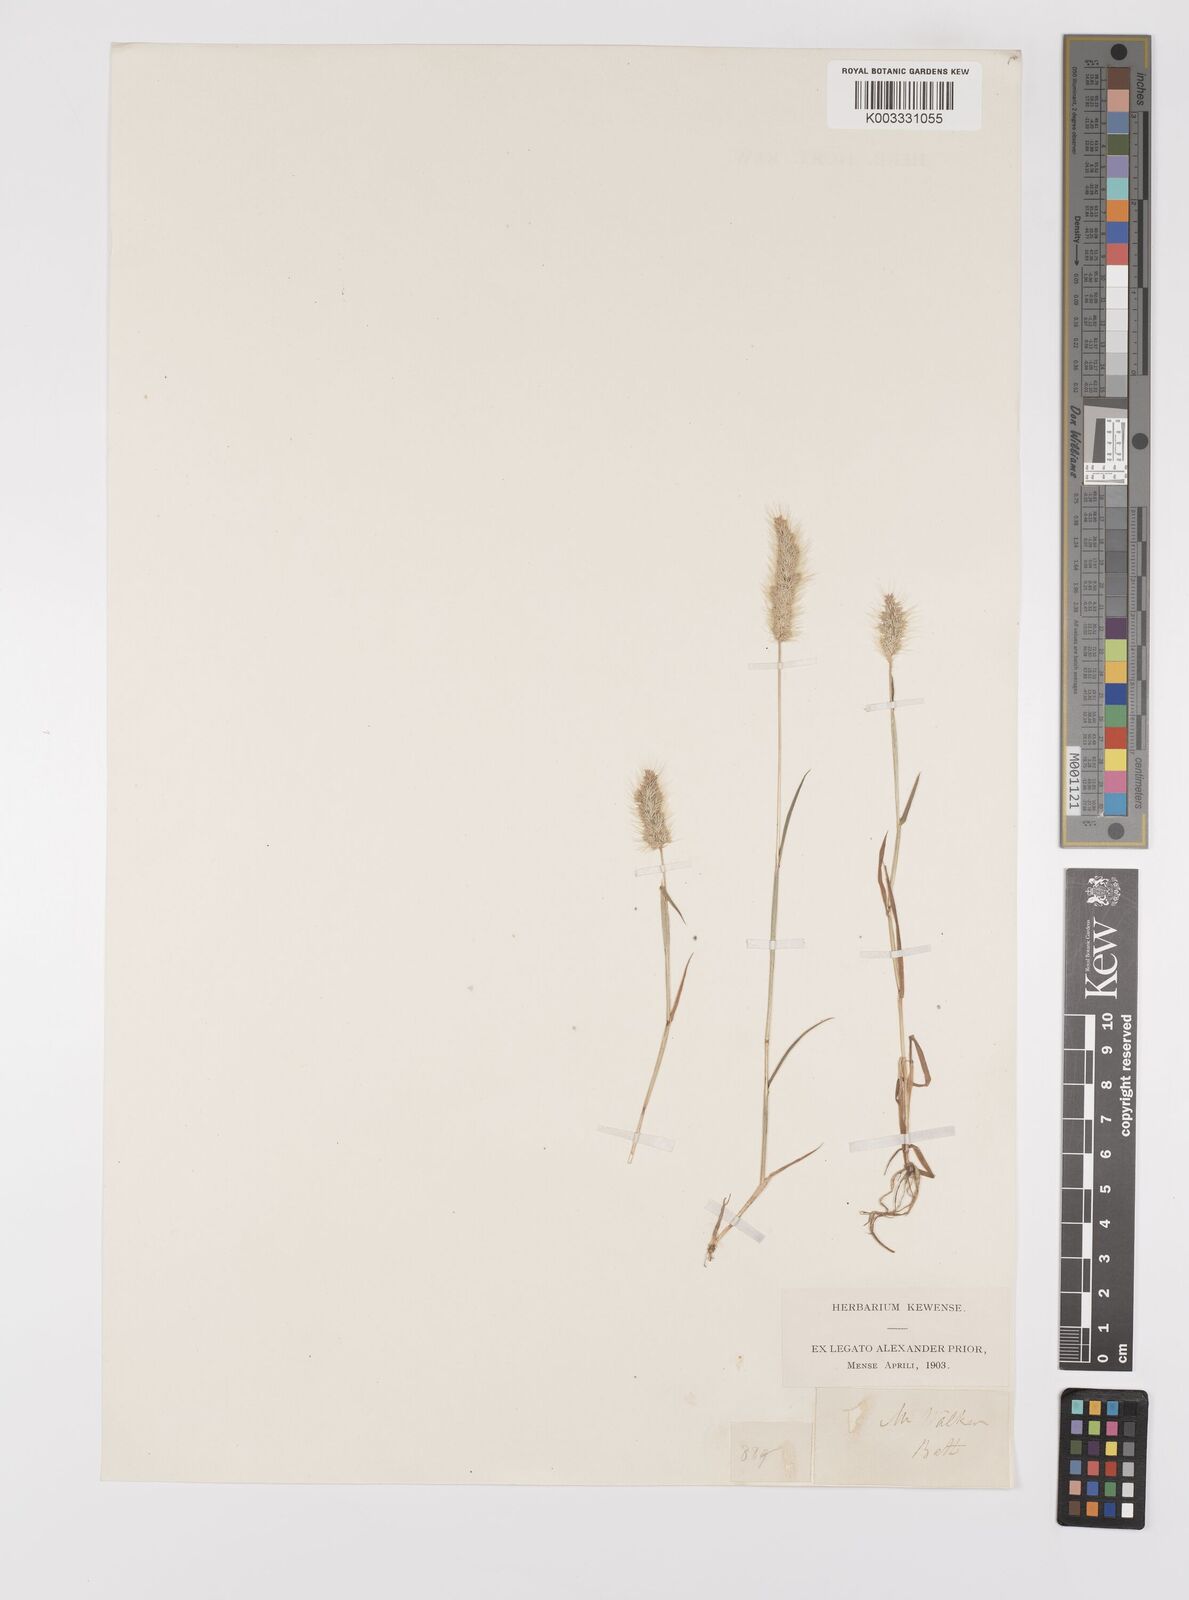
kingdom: Plantae
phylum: Tracheophyta
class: Liliopsida
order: Poales
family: Poaceae
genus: Polypogon
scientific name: Polypogon monspeliensis
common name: Annual rabbitsfoot grass
